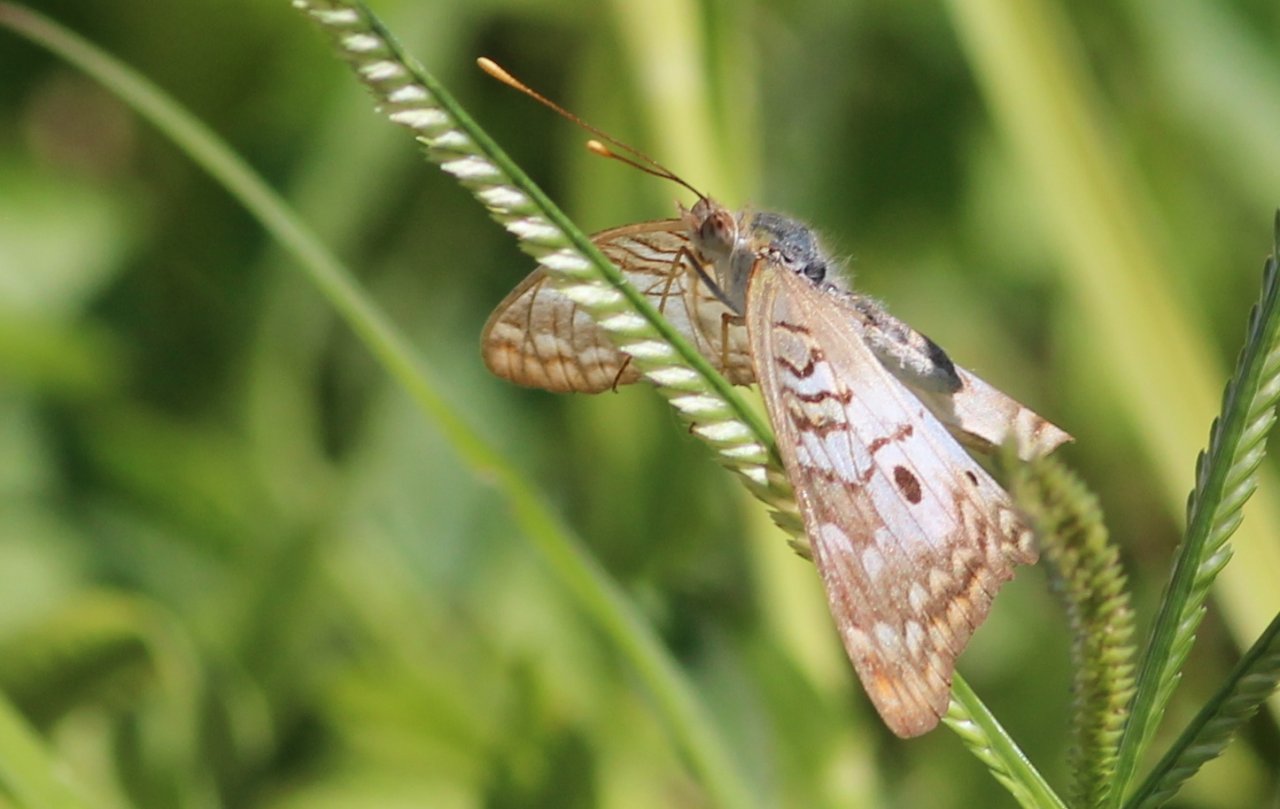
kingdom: Animalia
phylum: Arthropoda
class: Insecta
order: Lepidoptera
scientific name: Lepidoptera
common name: Butterflies
